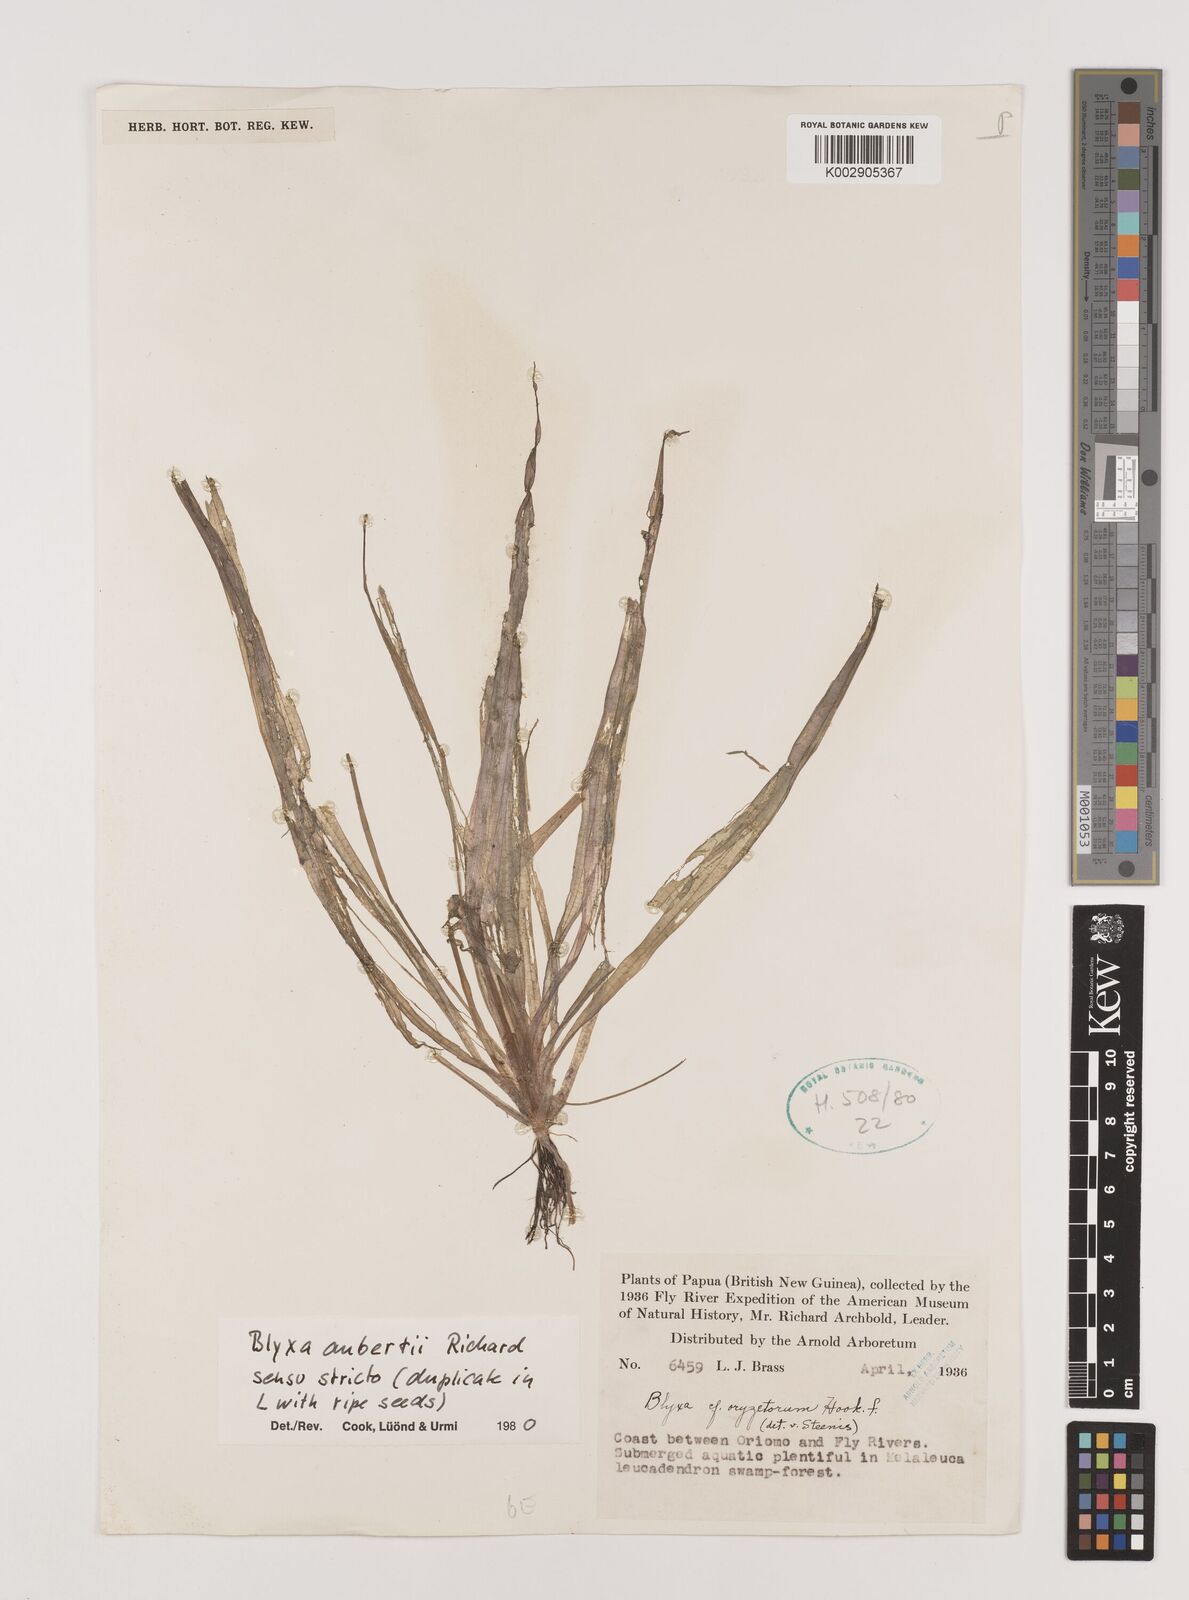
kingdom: Plantae
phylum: Tracheophyta
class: Liliopsida
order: Alismatales
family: Hydrocharitaceae
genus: Blyxa
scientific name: Blyxa aubertii
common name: Roundfruit blyxa
